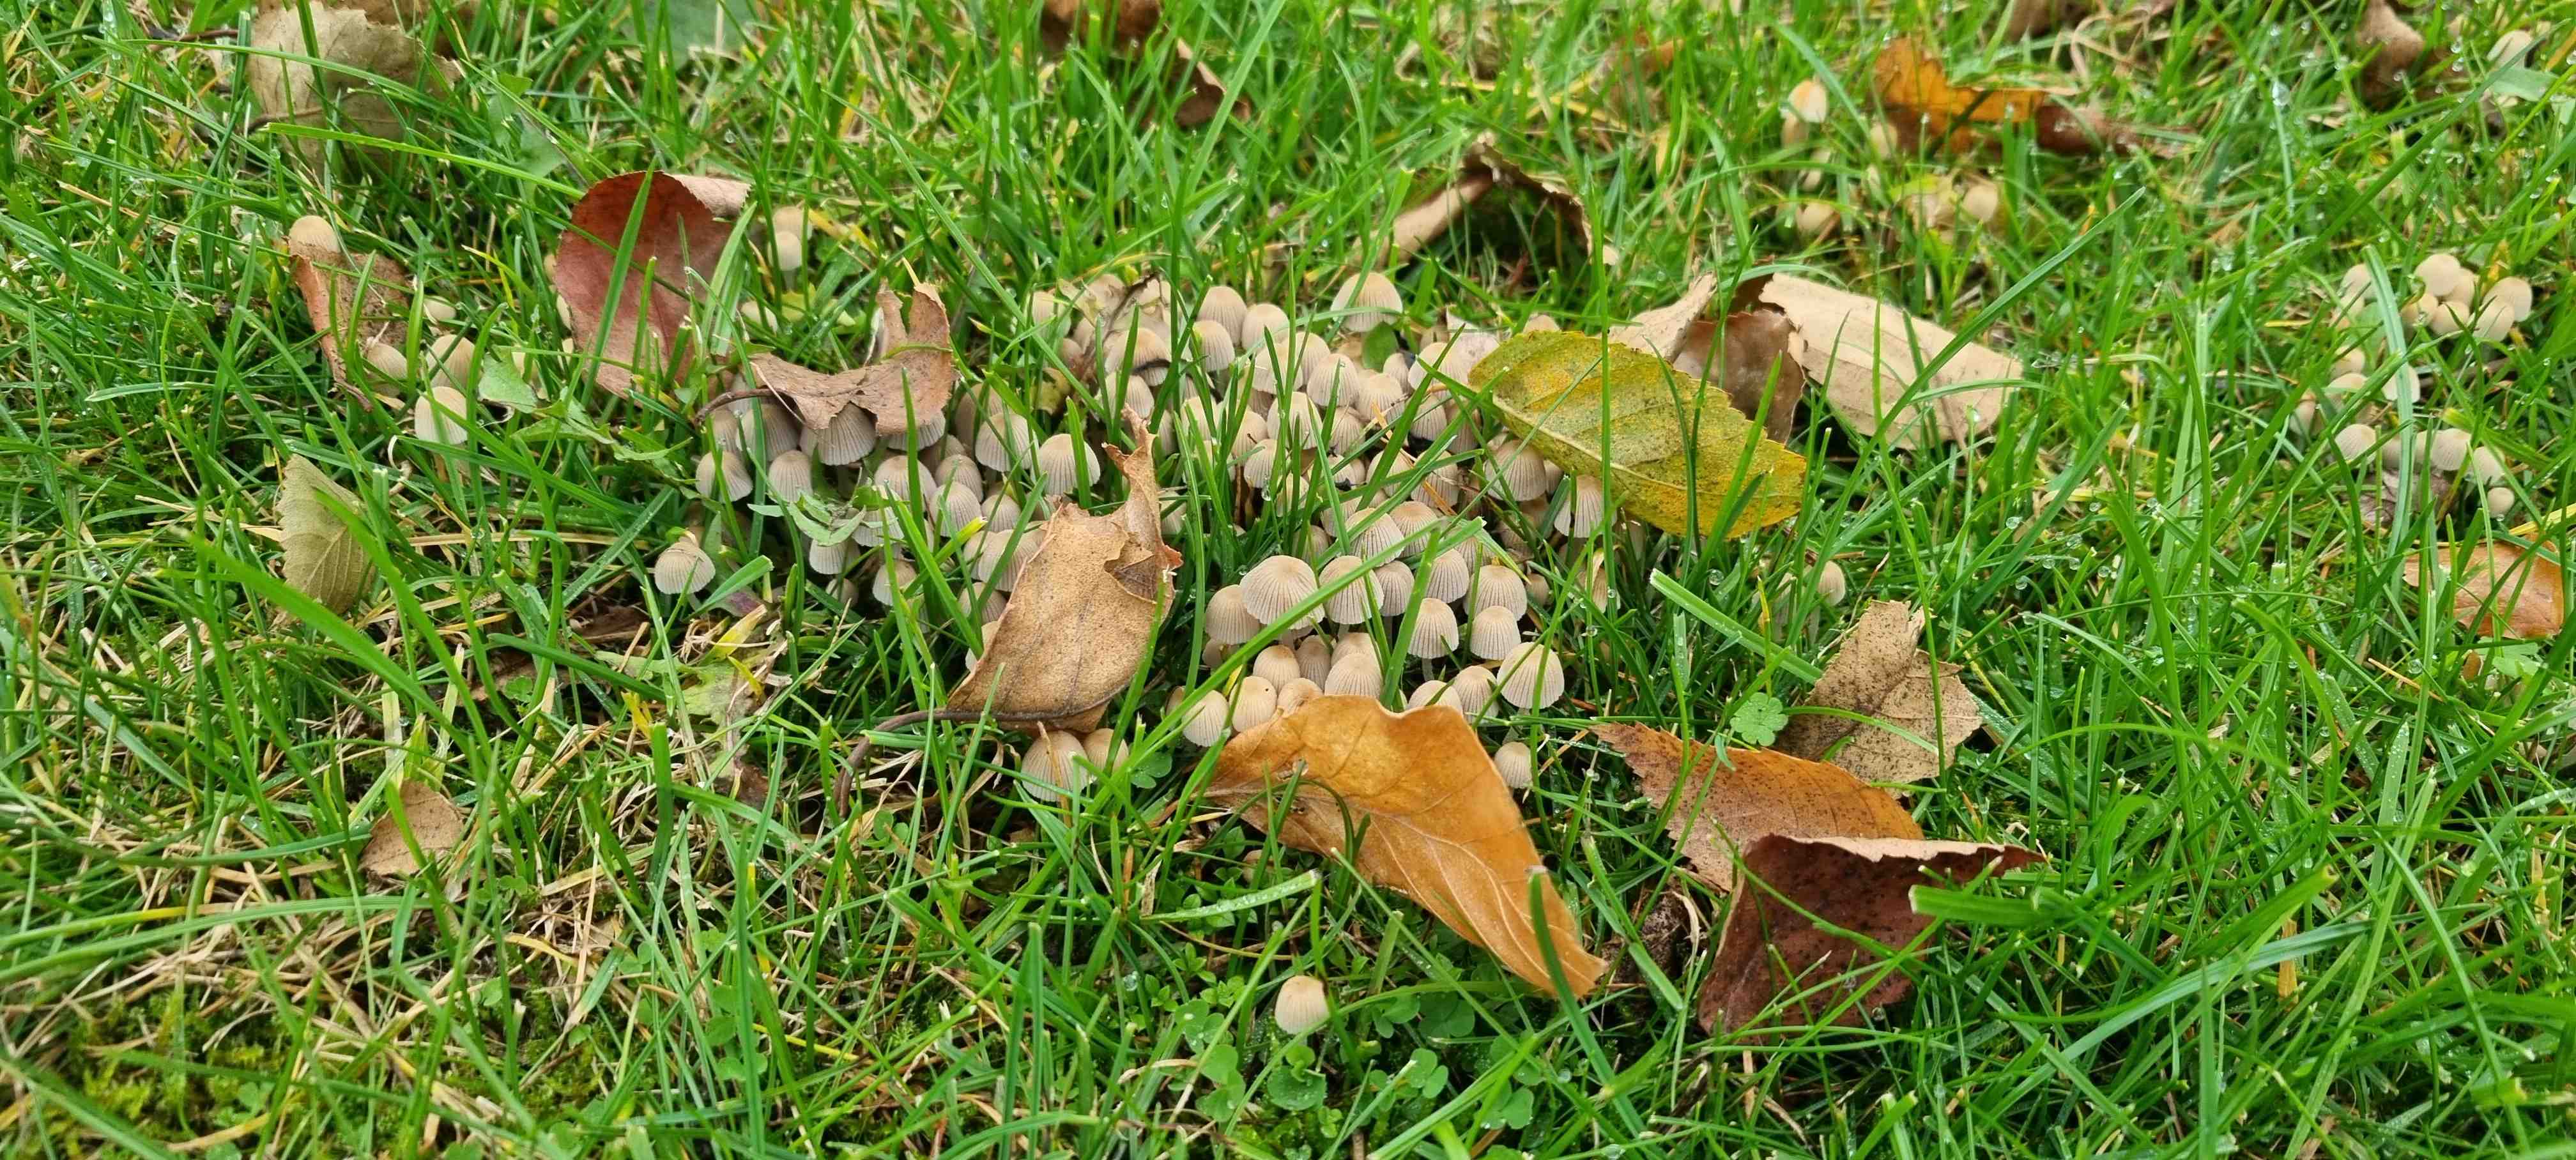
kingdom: Fungi
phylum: Basidiomycota
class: Agaricomycetes
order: Agaricales
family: Psathyrellaceae
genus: Coprinellus
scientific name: Coprinellus disseminatus
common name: bredsået blækhat
